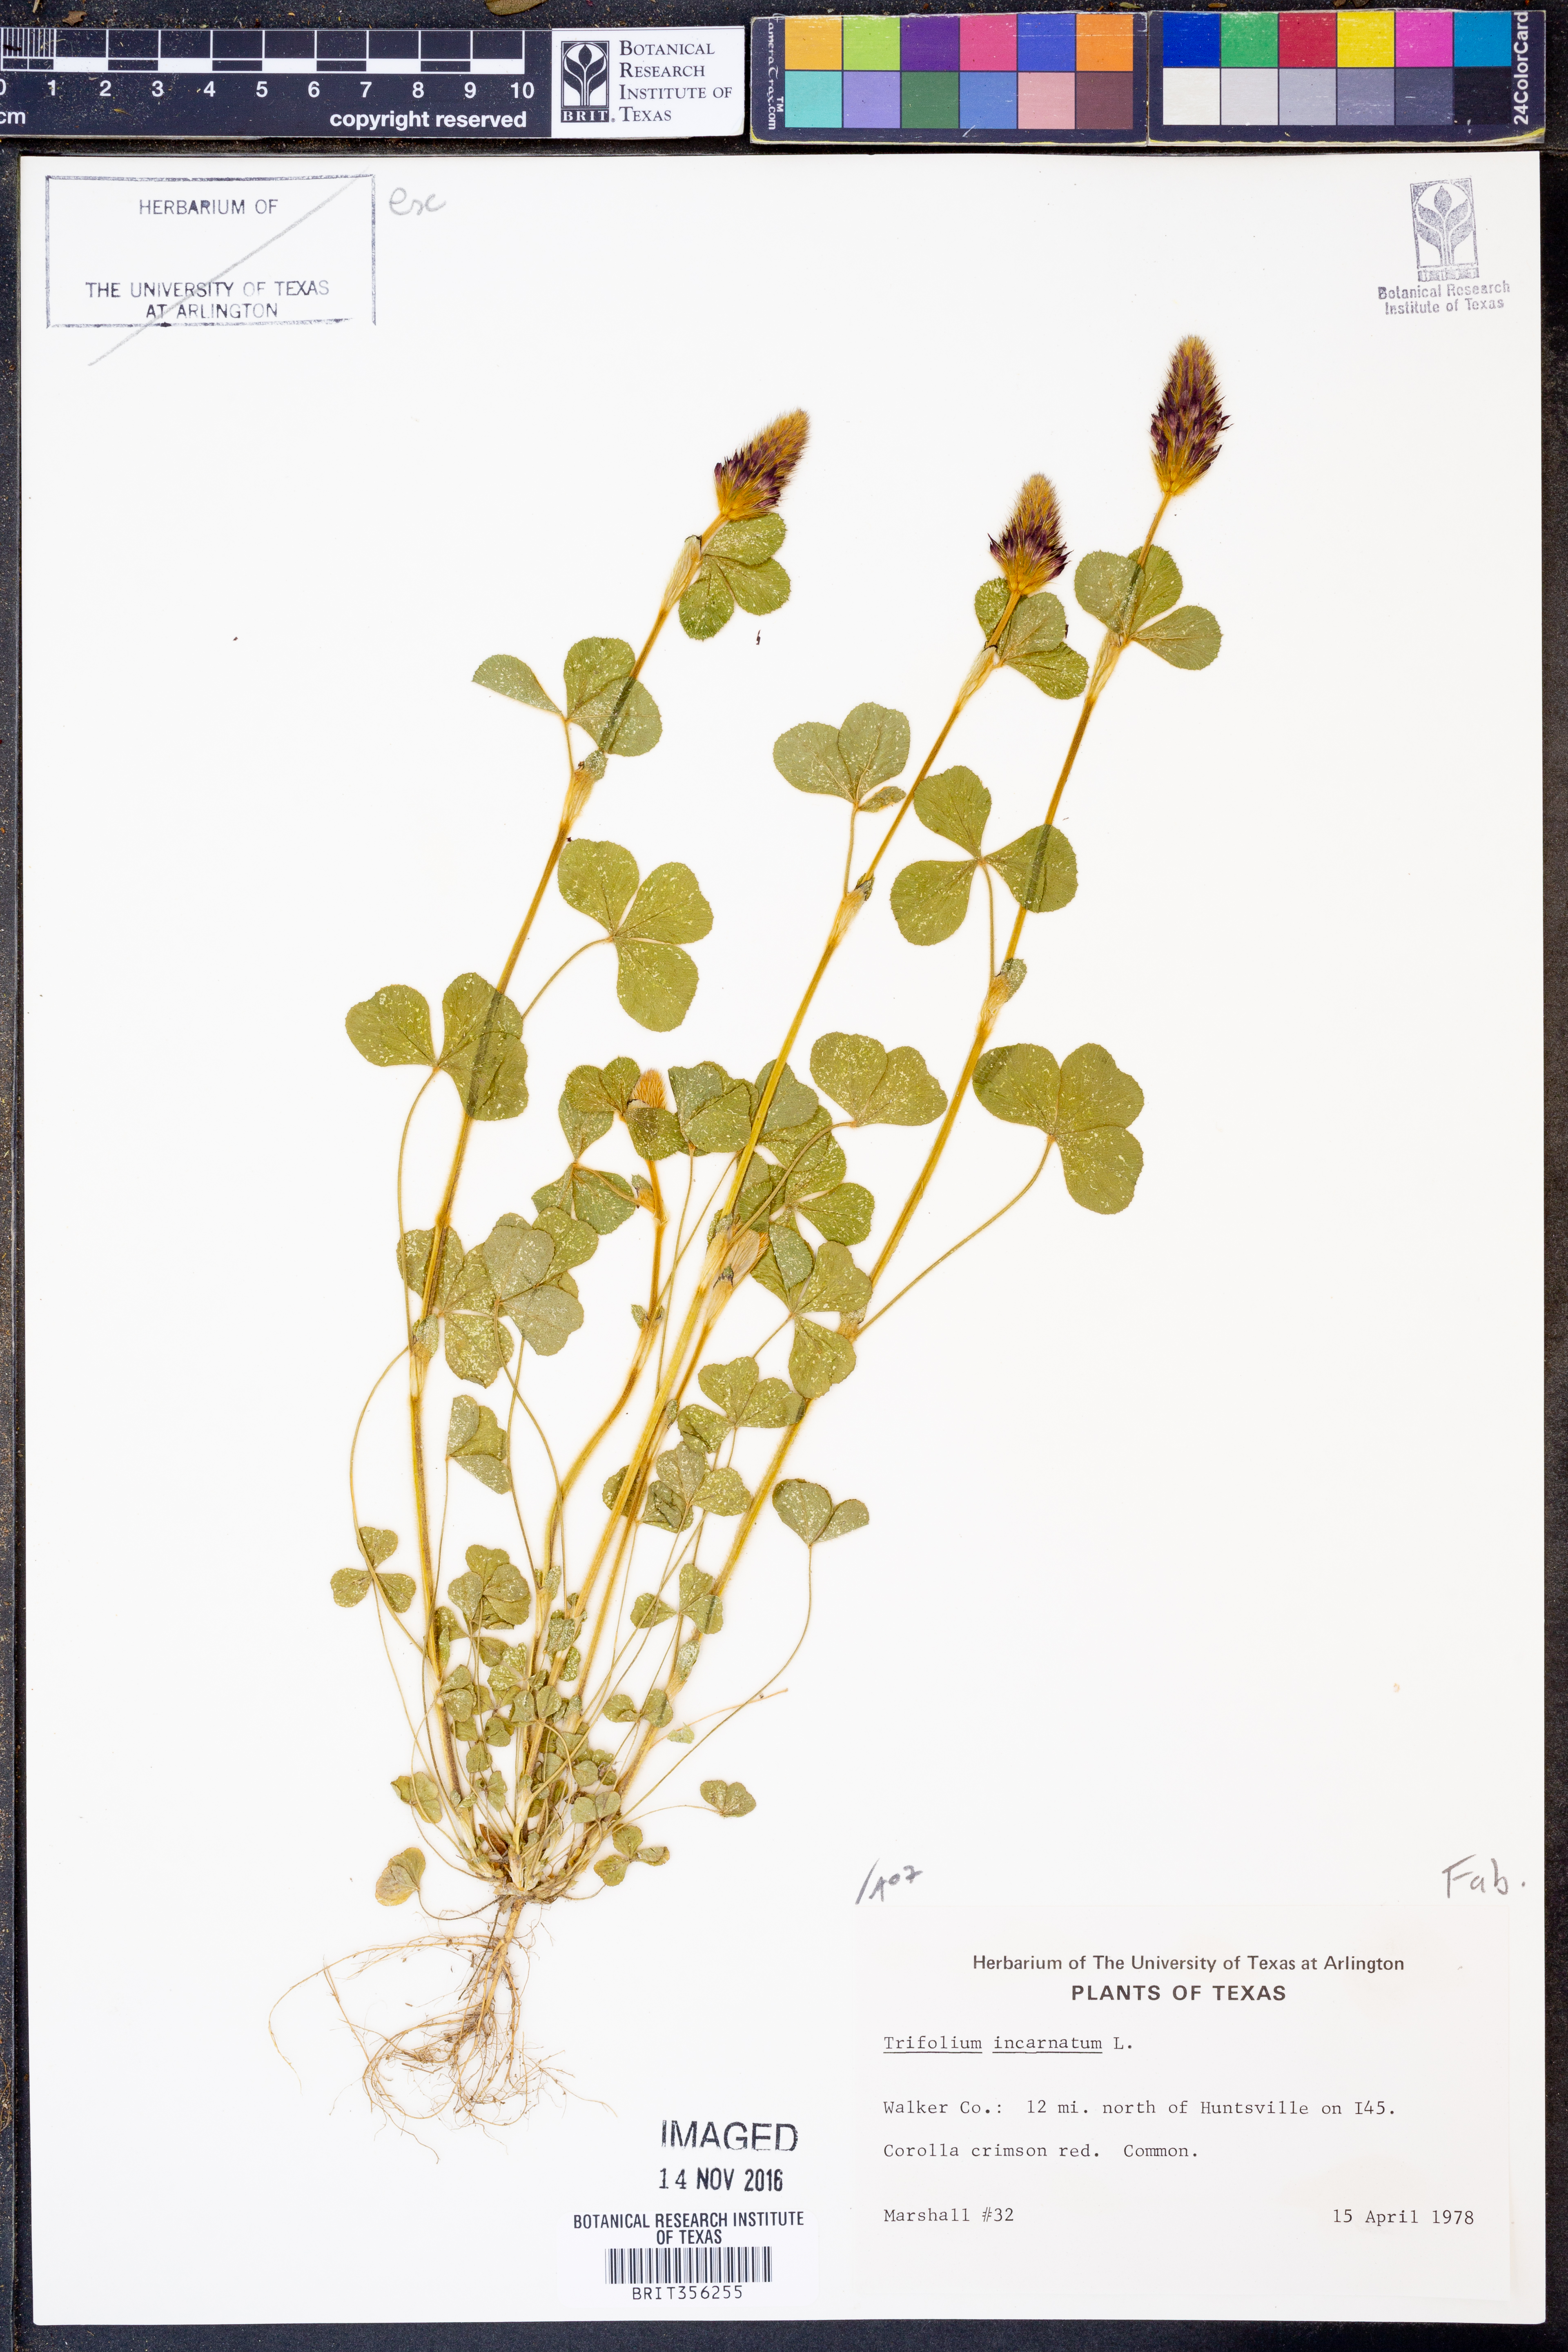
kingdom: Plantae
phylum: Tracheophyta
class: Magnoliopsida
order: Fabales
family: Fabaceae
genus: Trifolium
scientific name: Trifolium incarnatum
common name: Crimson clover
